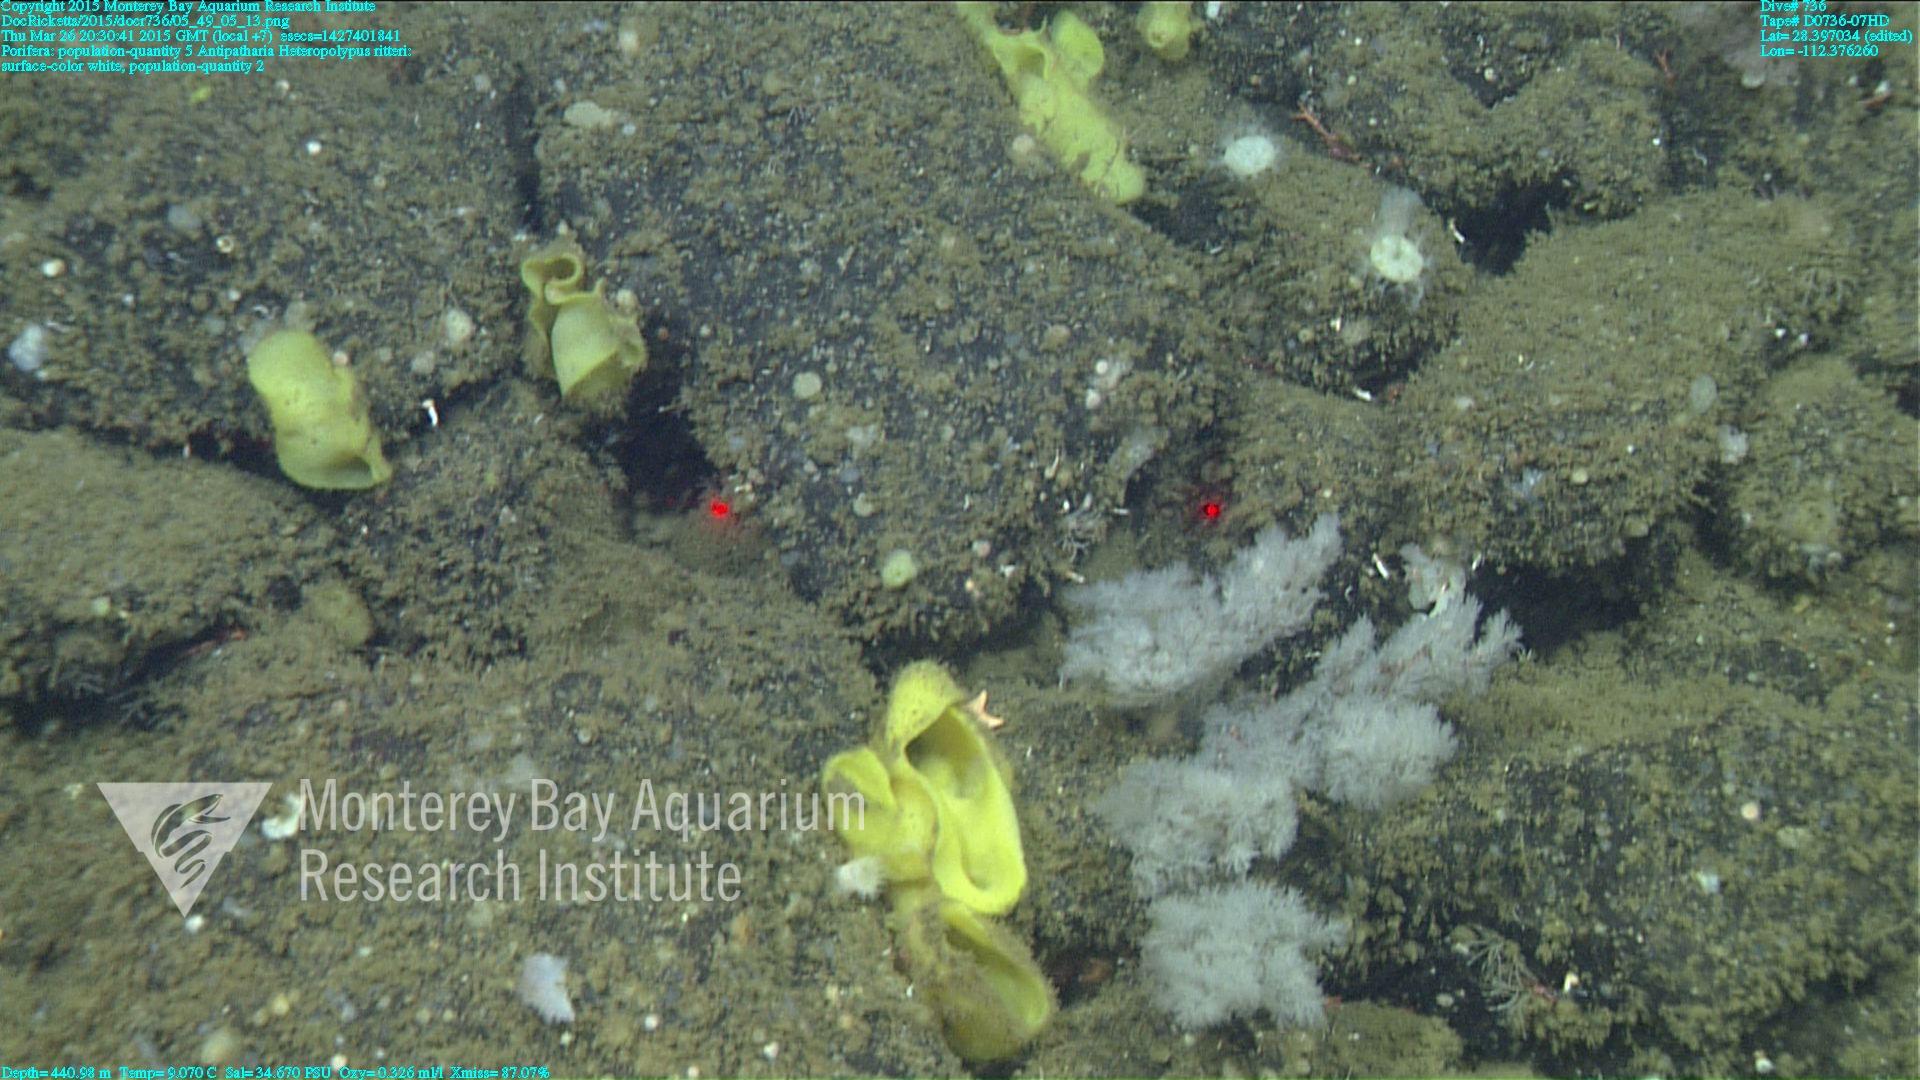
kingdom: Animalia
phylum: Cnidaria
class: Anthozoa
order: Scleralcyonacea
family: Coralliidae
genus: Heteropolypus
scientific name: Heteropolypus ritteri
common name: Ritter's soft coral
